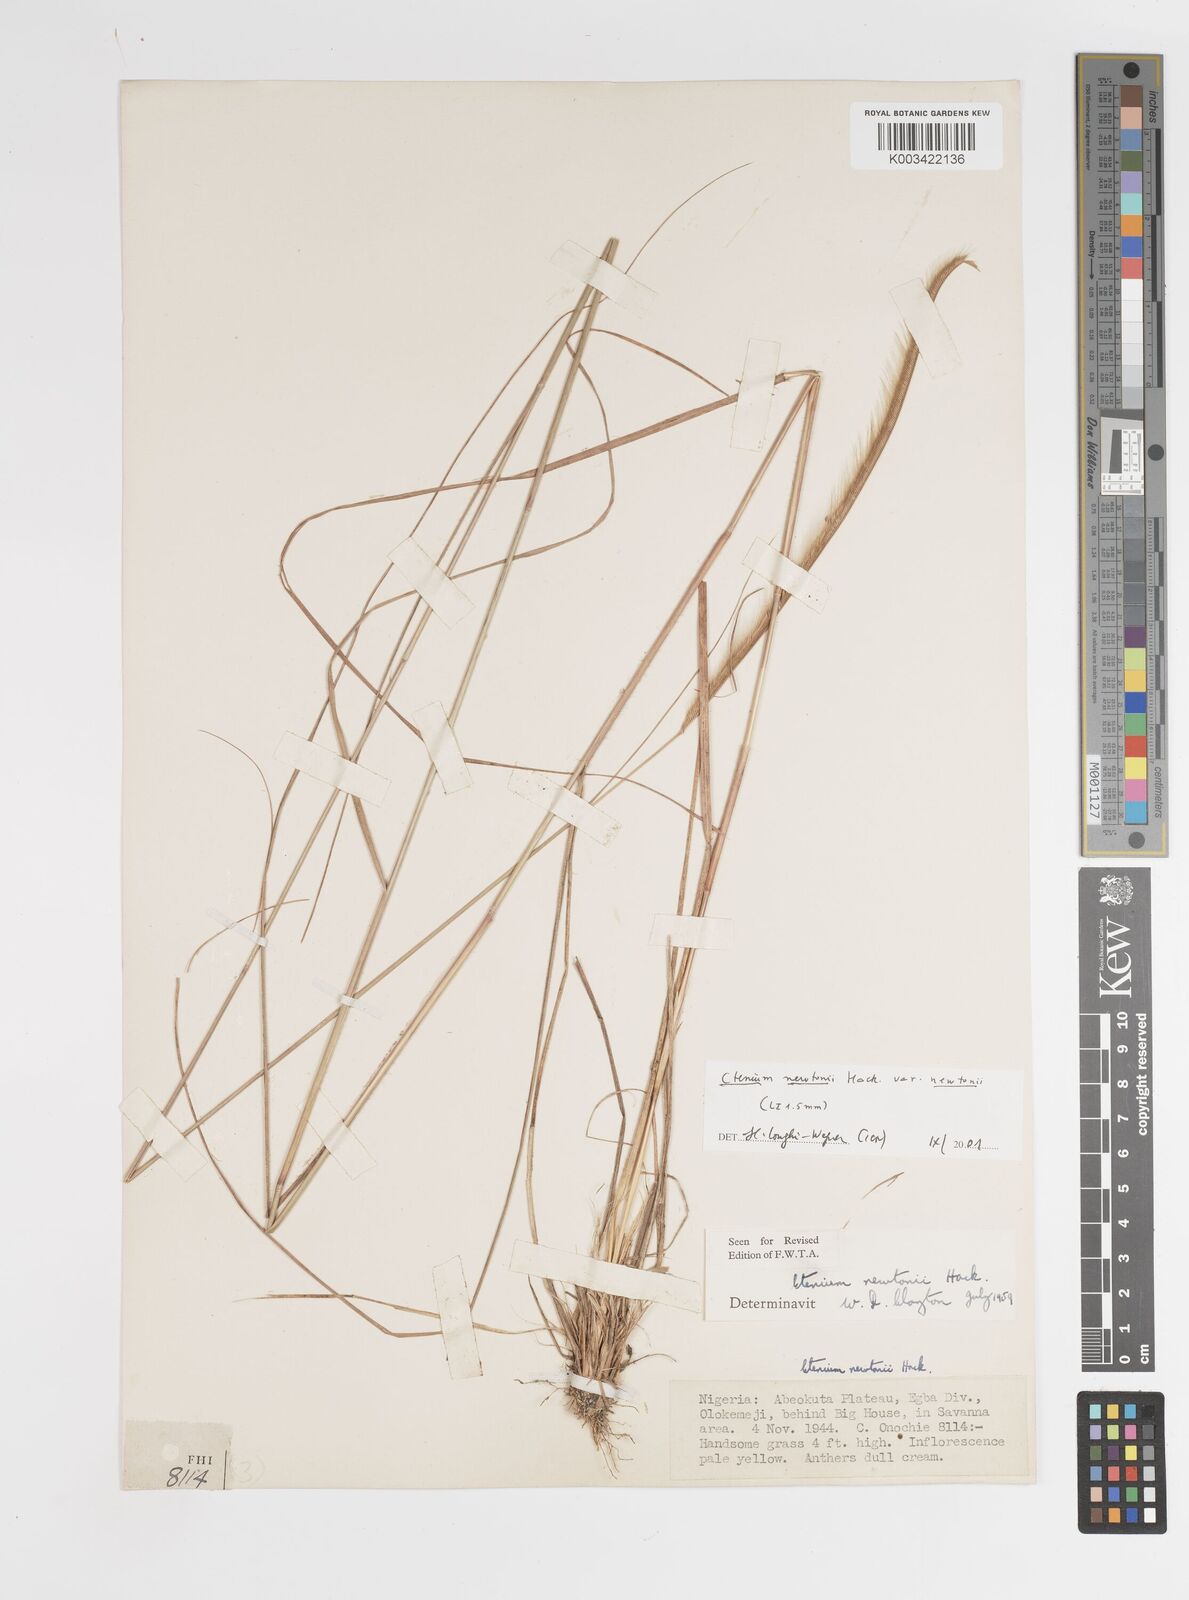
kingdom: Plantae
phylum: Tracheophyta
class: Liliopsida
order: Poales
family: Poaceae
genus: Ctenium
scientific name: Ctenium newtonii
